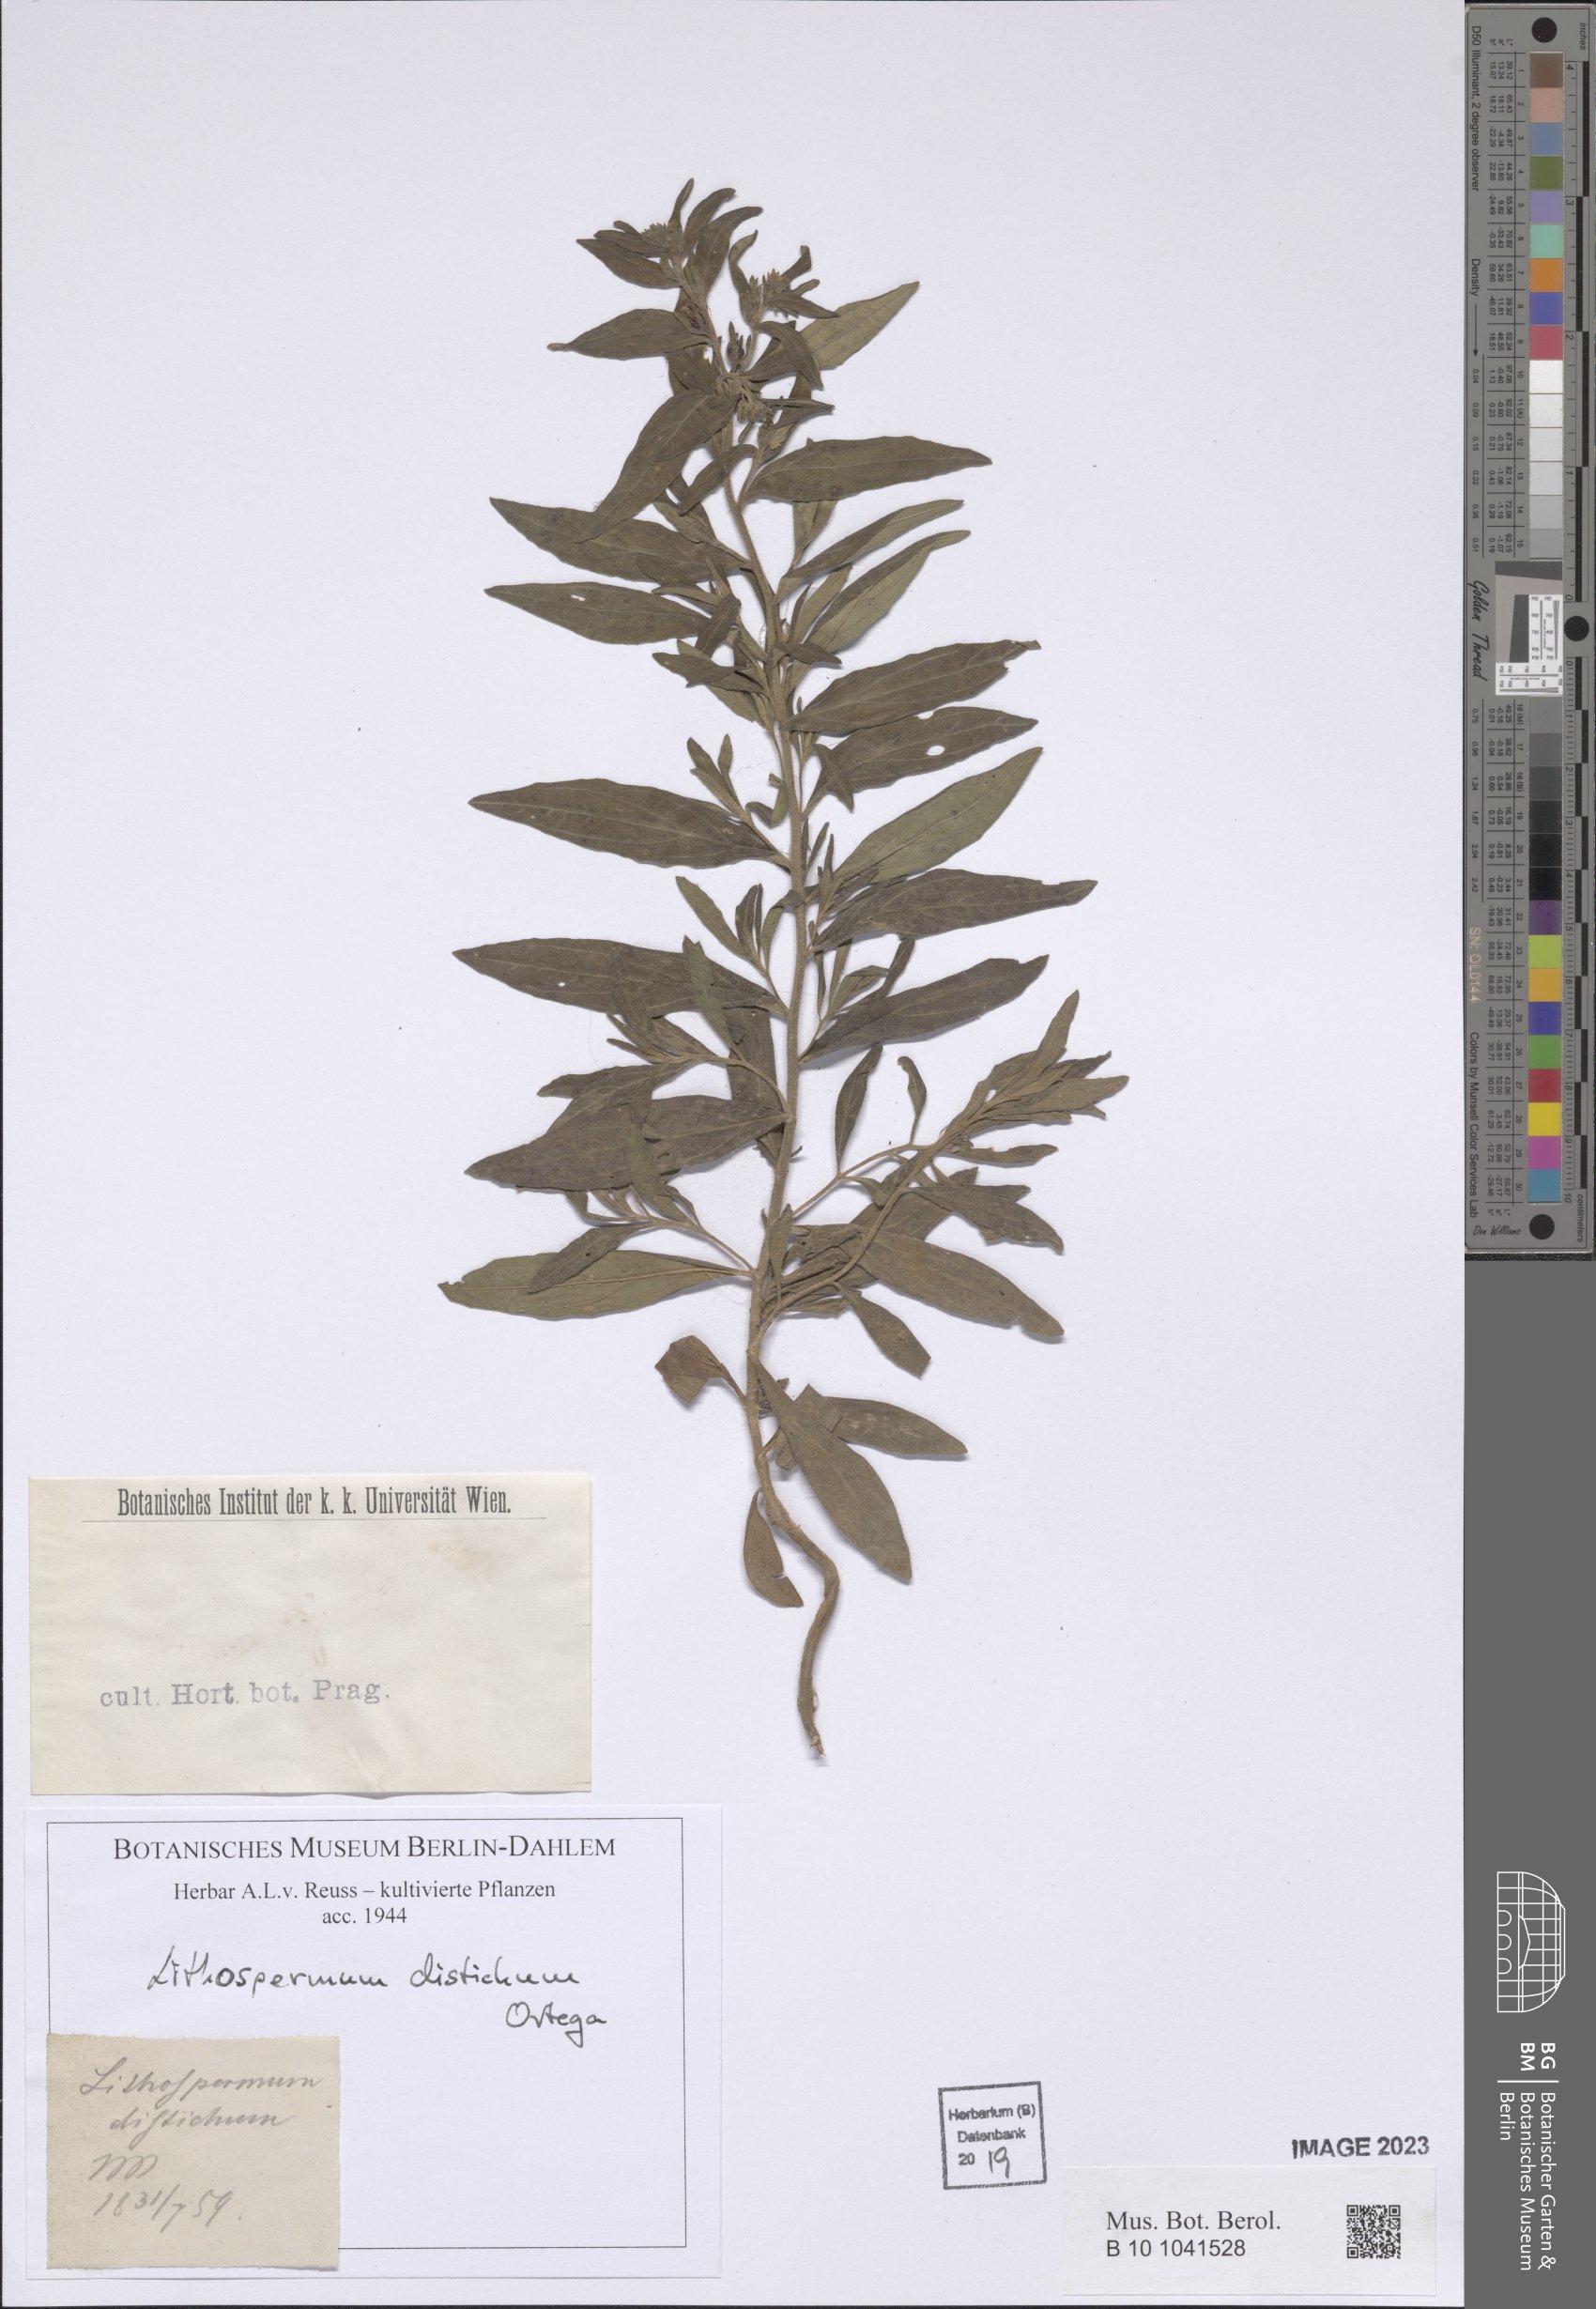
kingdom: Plantae
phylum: Tracheophyta
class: Magnoliopsida
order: Boraginales
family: Boraginaceae
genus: Lithospermum
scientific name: Lithospermum distichum
